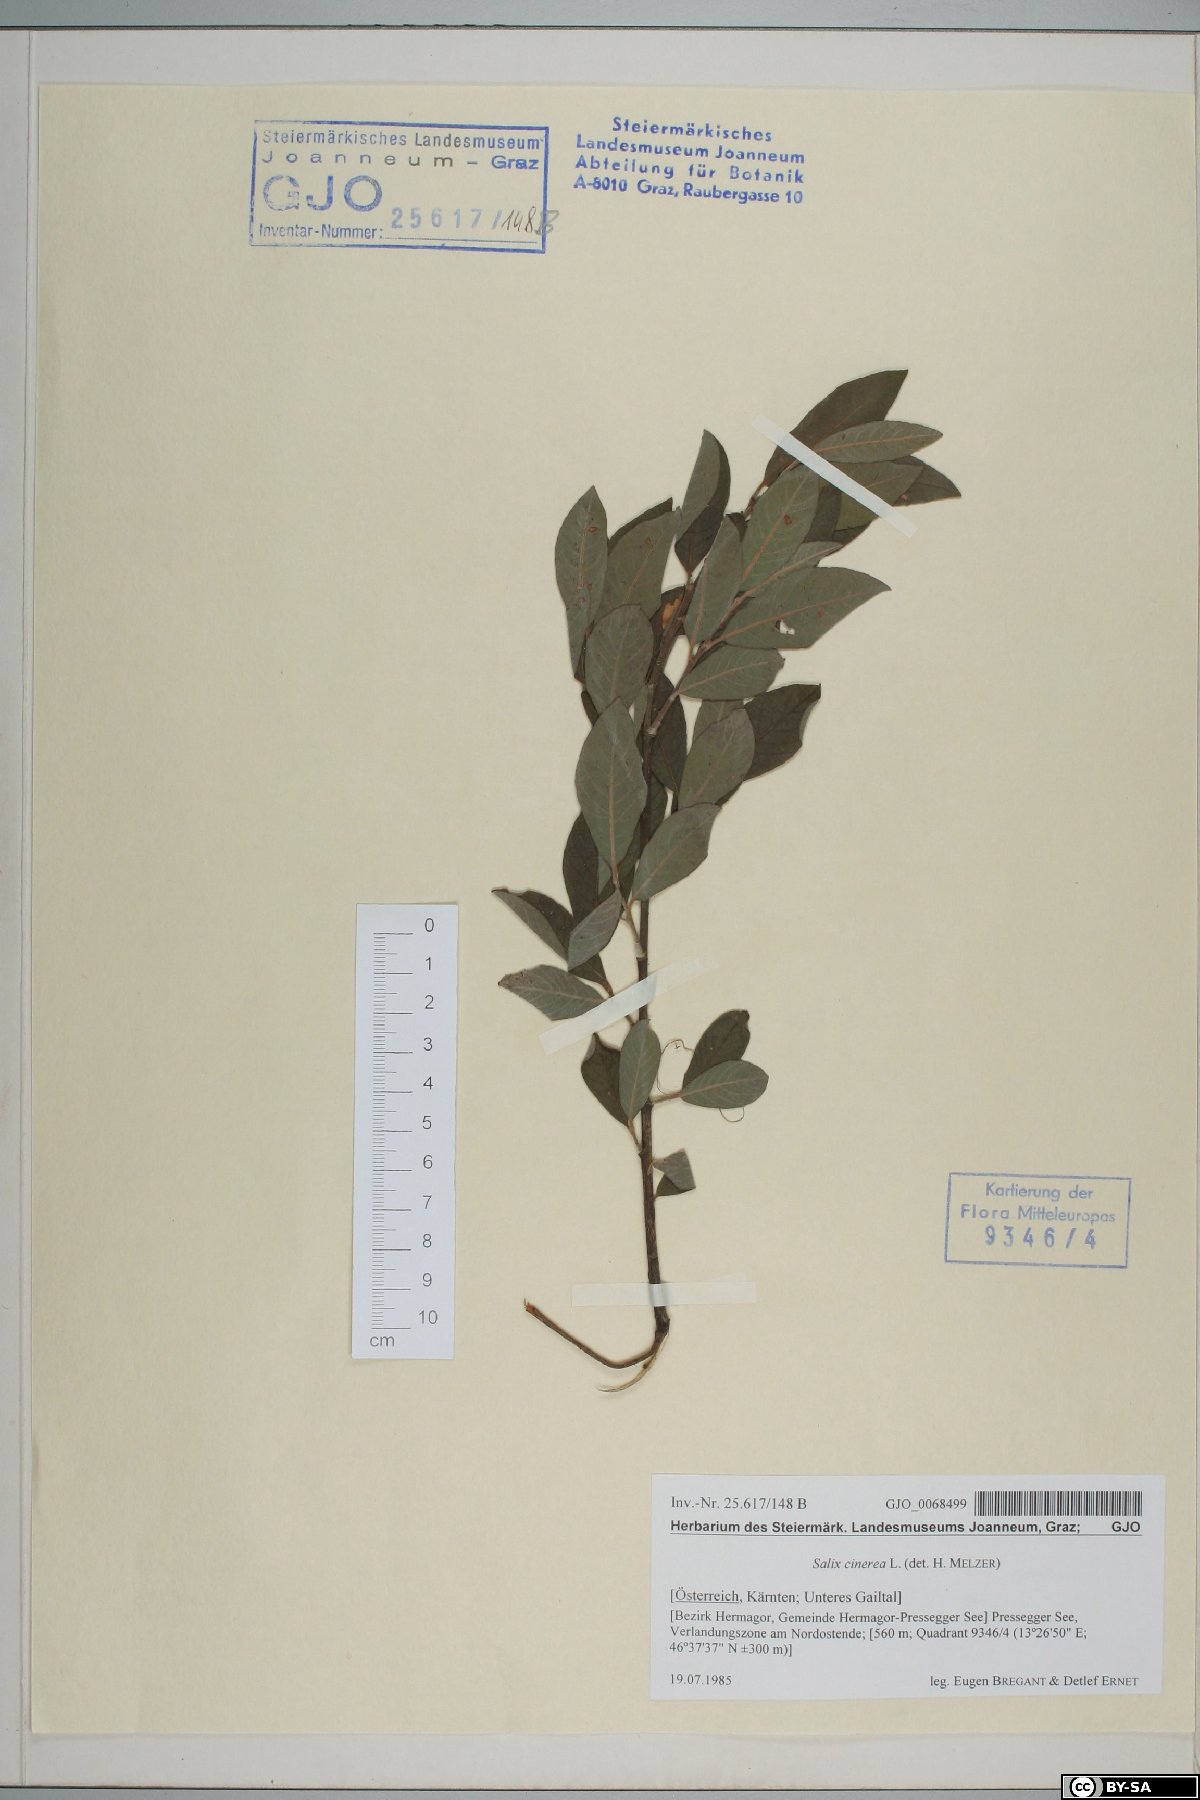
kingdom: Plantae
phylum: Tracheophyta
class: Magnoliopsida
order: Malpighiales
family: Salicaceae
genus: Salix
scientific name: Salix cinerea
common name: Common sallow
